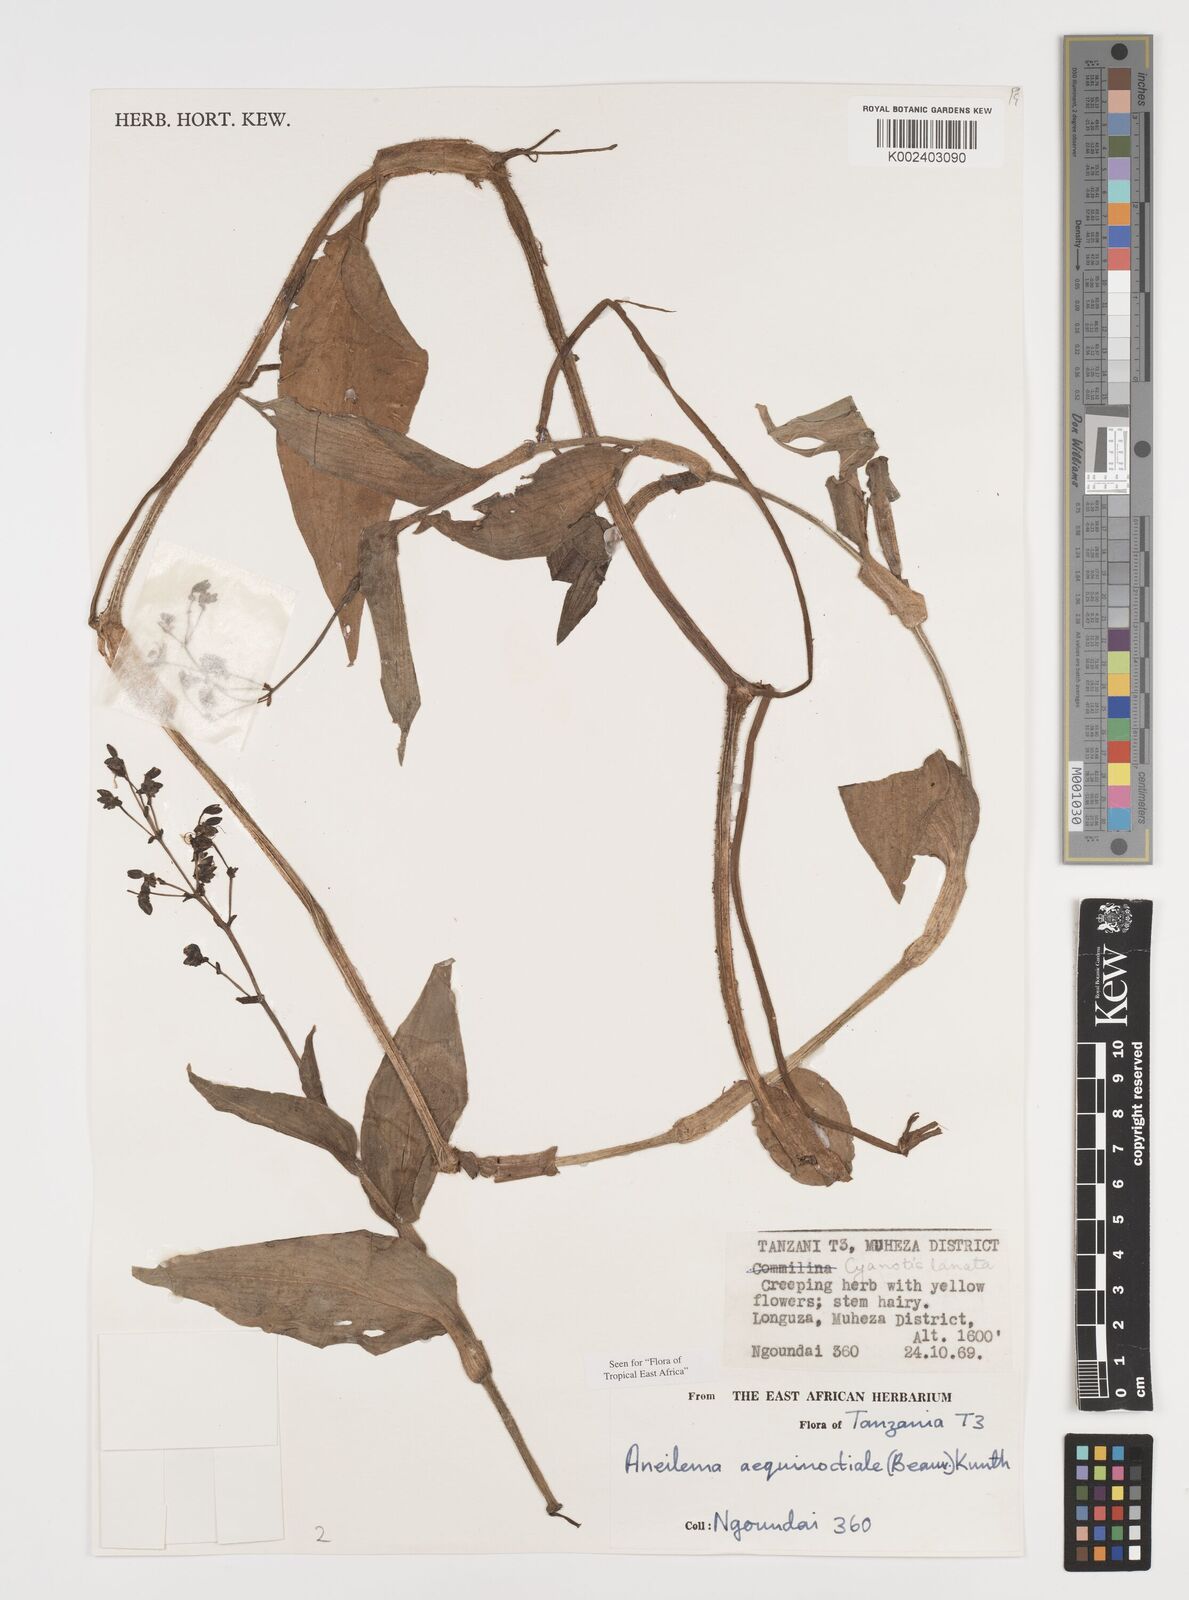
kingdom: Plantae
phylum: Tracheophyta
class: Liliopsida
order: Commelinales
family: Commelinaceae
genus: Aneilema
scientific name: Aneilema aequinoctiale
